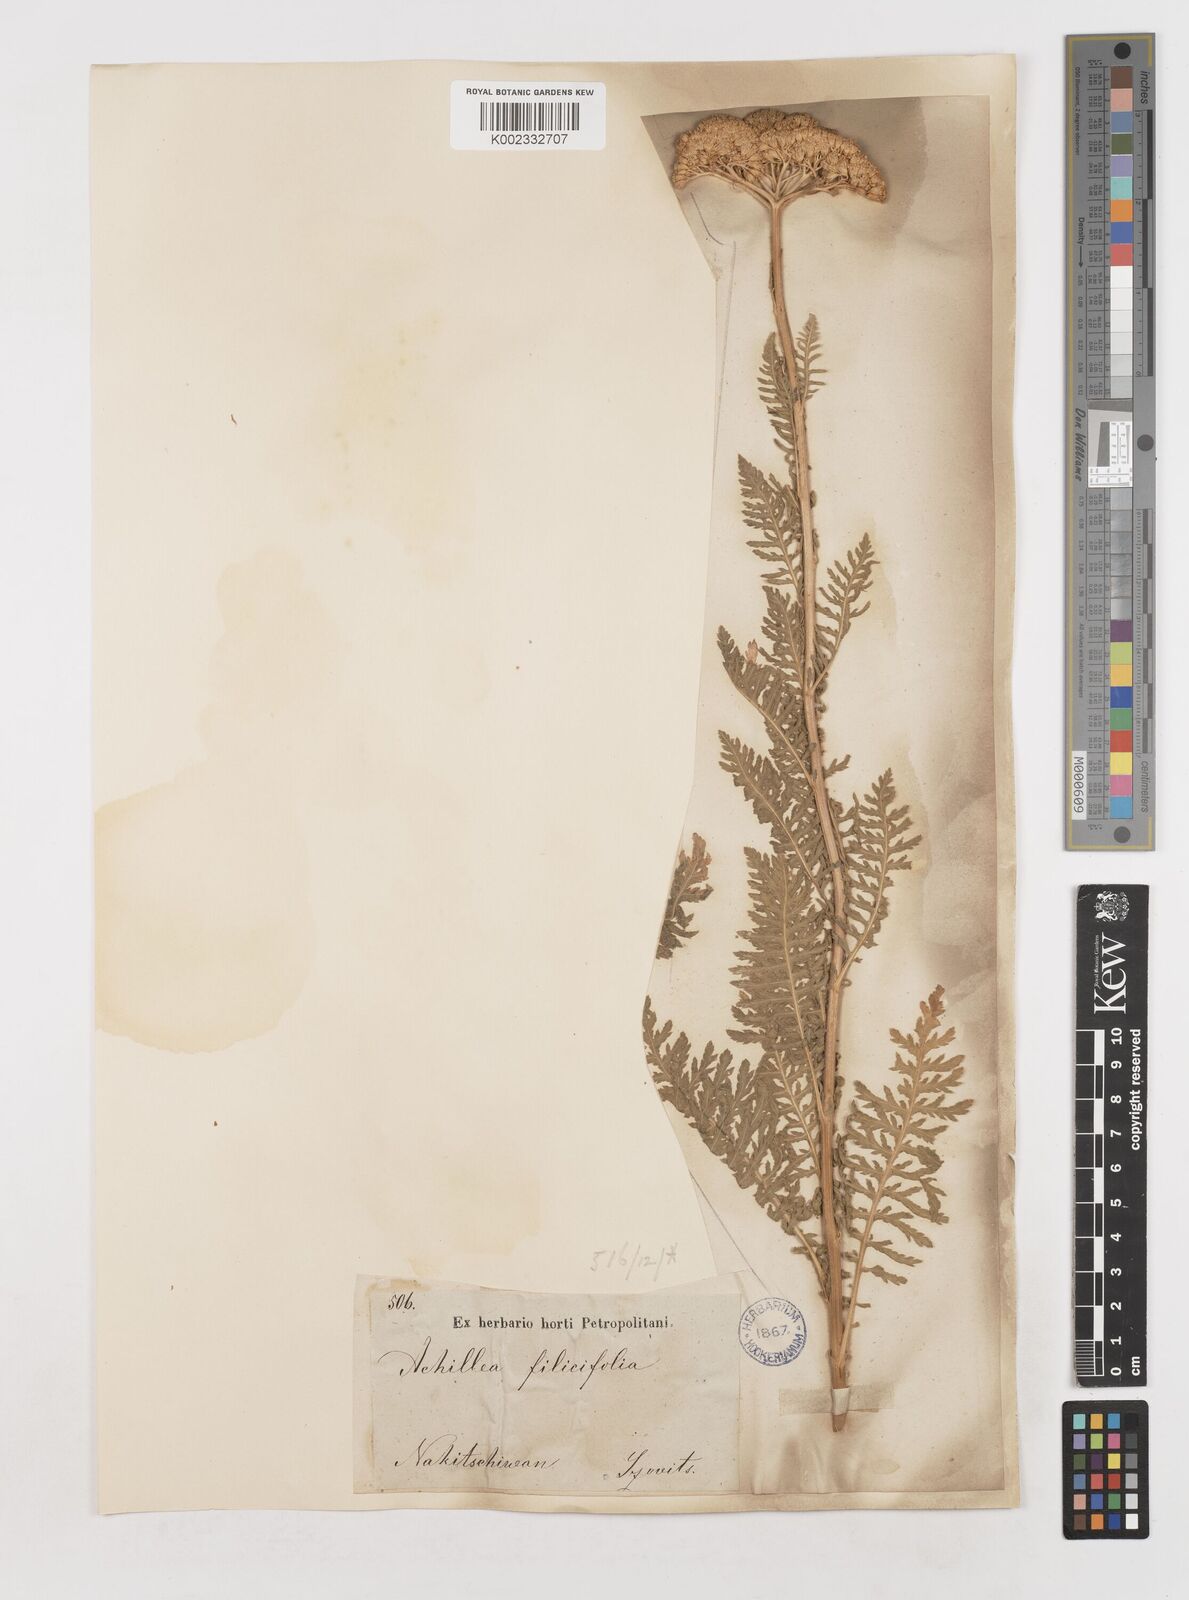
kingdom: Plantae
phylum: Tracheophyta
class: Magnoliopsida
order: Asterales
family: Asteraceae
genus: Achillea
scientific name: Achillea filipendulina
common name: Fernleaf yarrow
